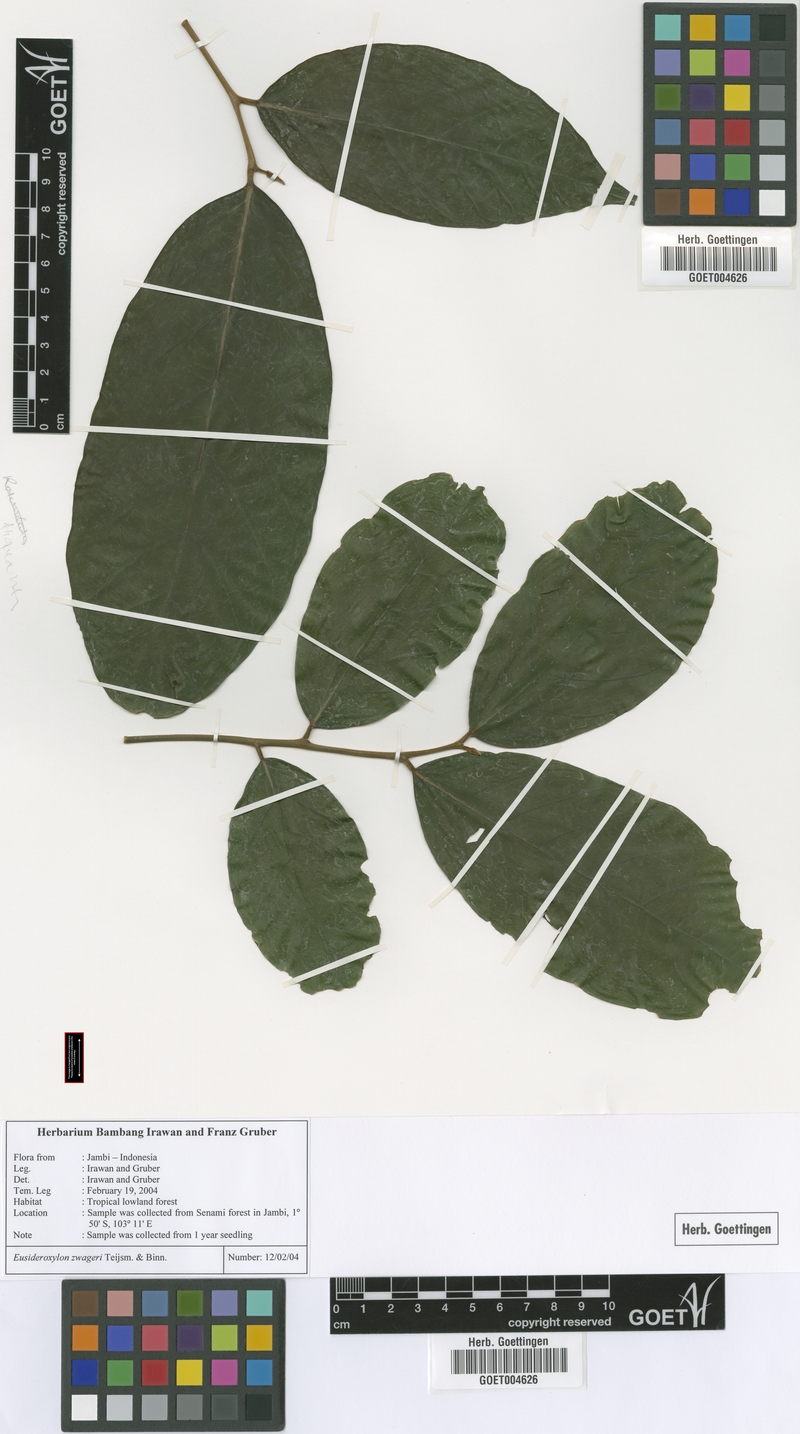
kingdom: Plantae
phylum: Tracheophyta
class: Magnoliopsida
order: Laurales
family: Lauraceae
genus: Eusideroxylon
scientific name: Eusideroxylon zwageri
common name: Borneo ironwood
